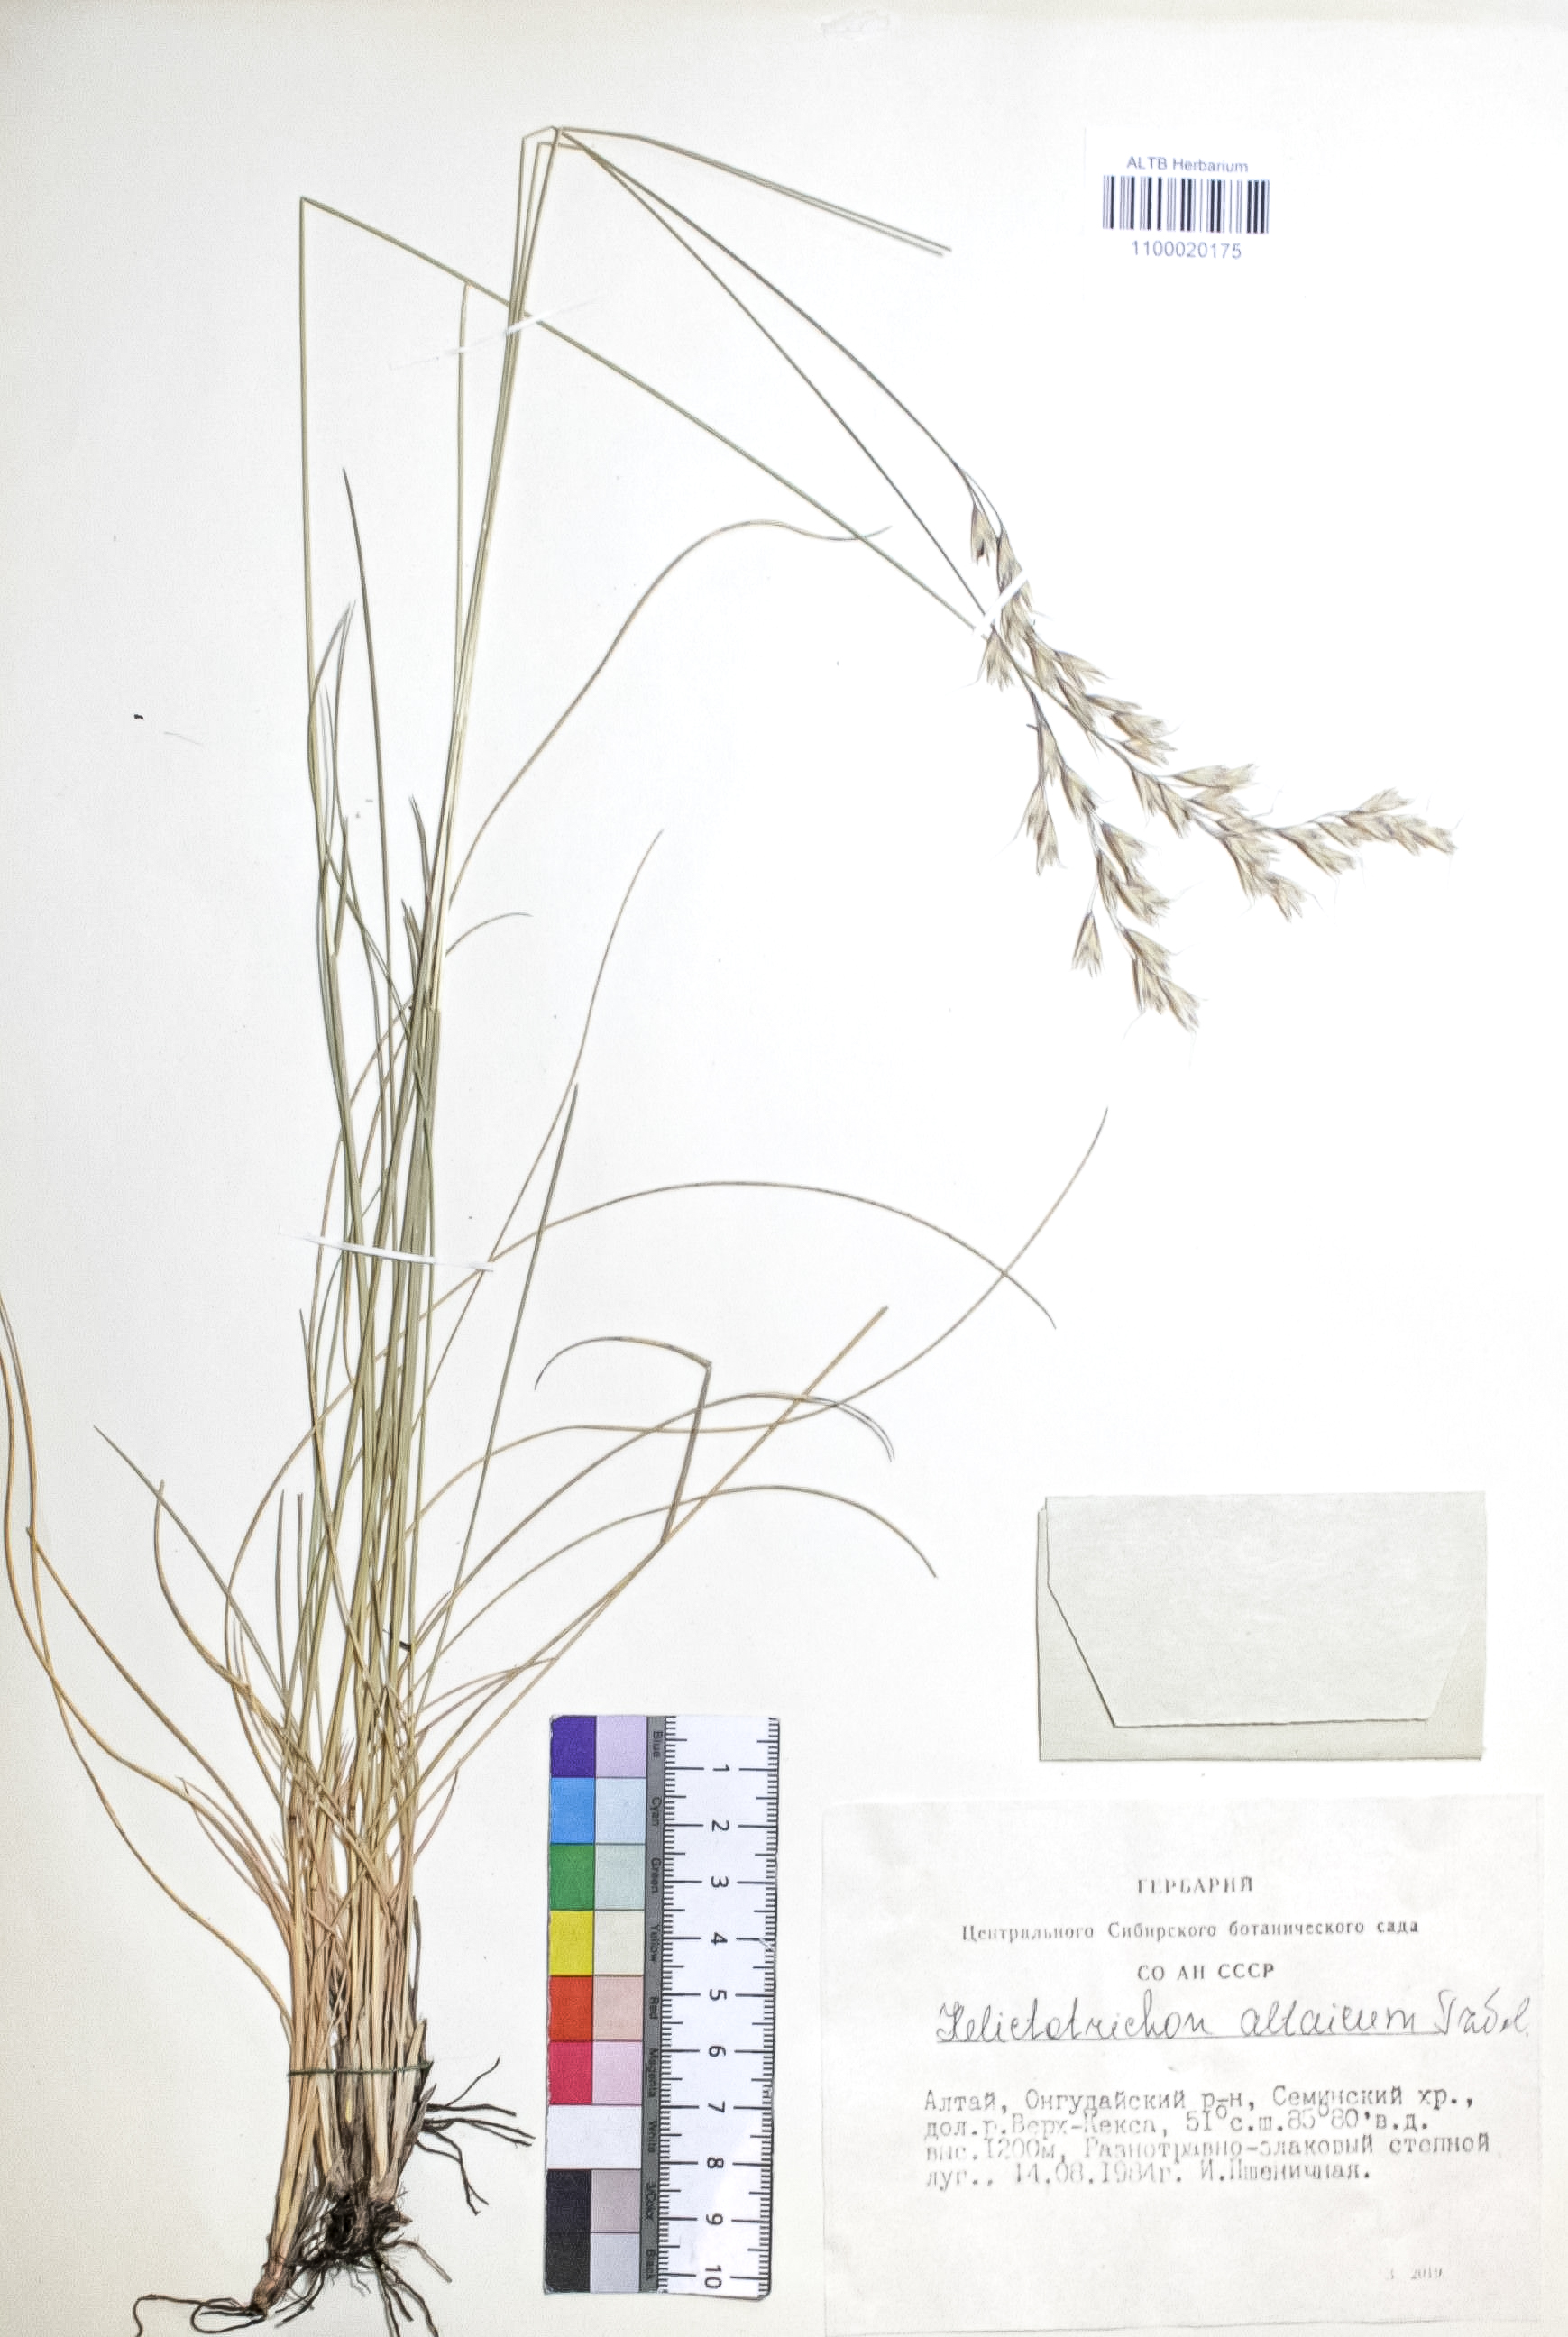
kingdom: Plantae
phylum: Tracheophyta
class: Liliopsida
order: Poales
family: Poaceae
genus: Helictotrichon
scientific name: Helictotrichon desertorum
